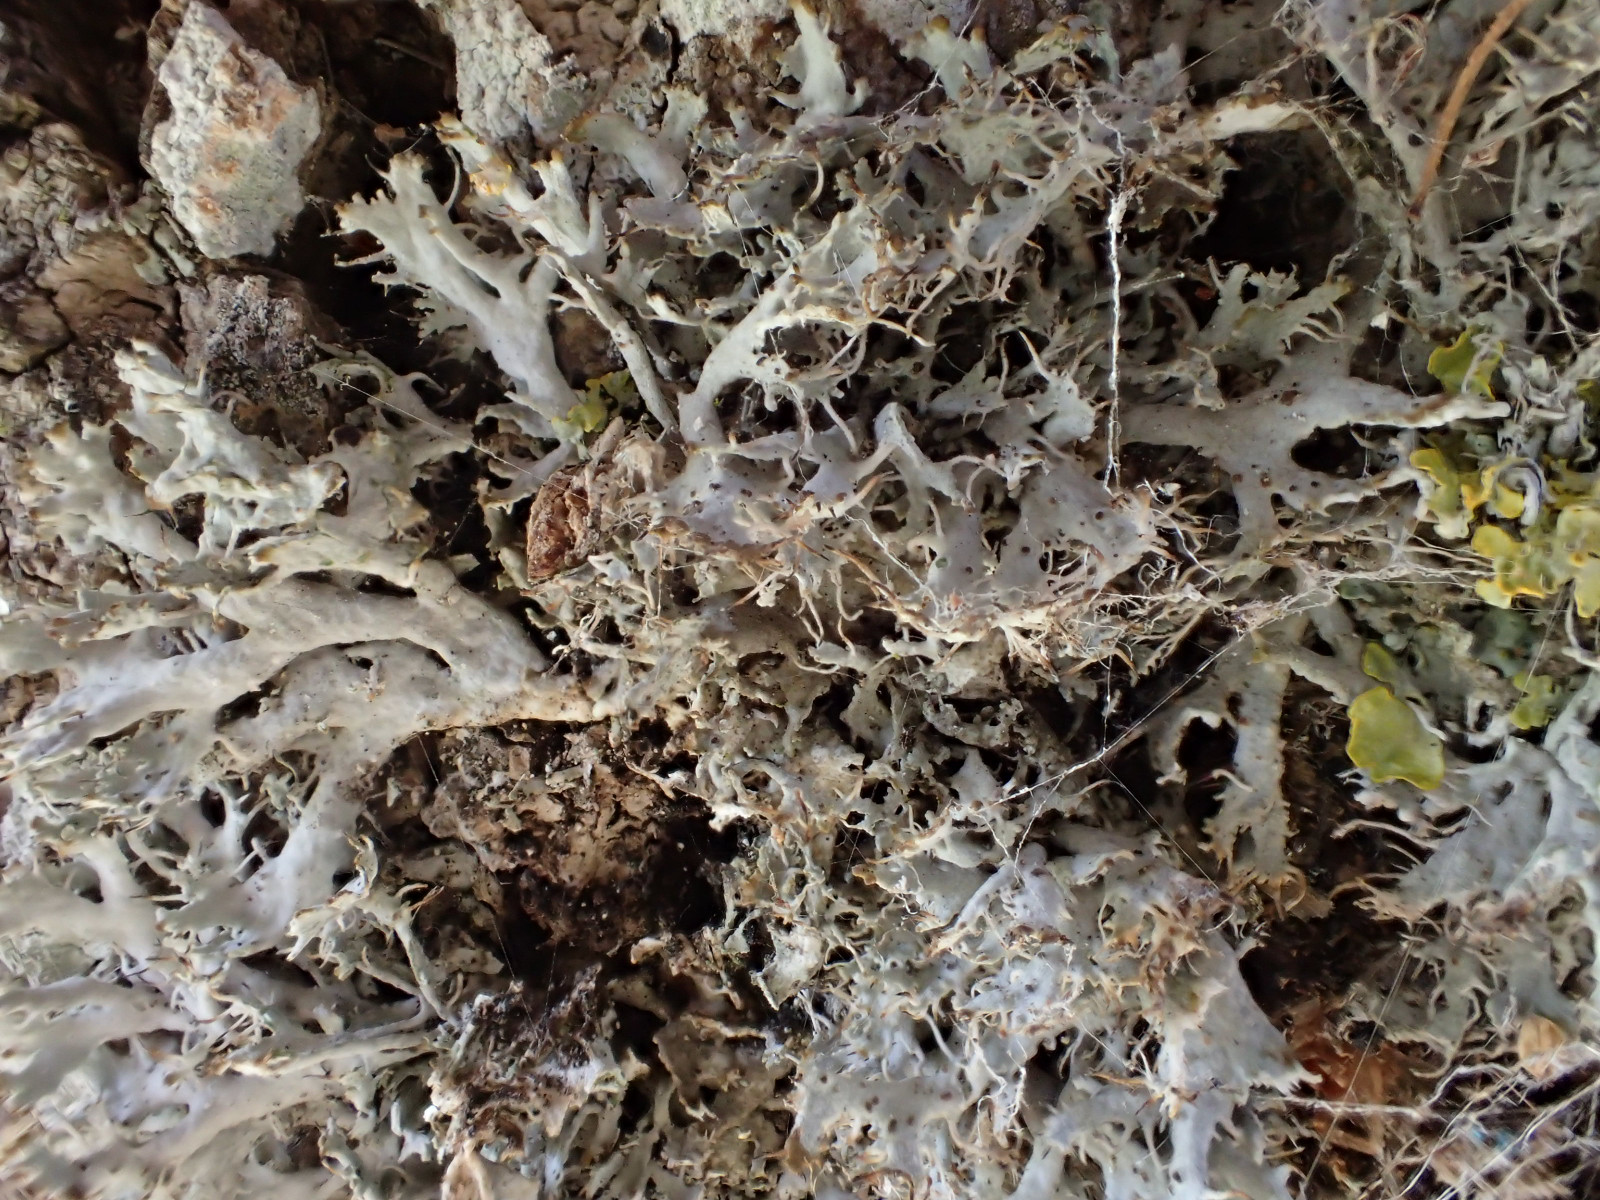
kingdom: Fungi
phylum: Ascomycota
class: Lecanoromycetes
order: Caliciales
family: Physciaceae
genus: Anaptychia
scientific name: Anaptychia ciliaris
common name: allé-frynselav
